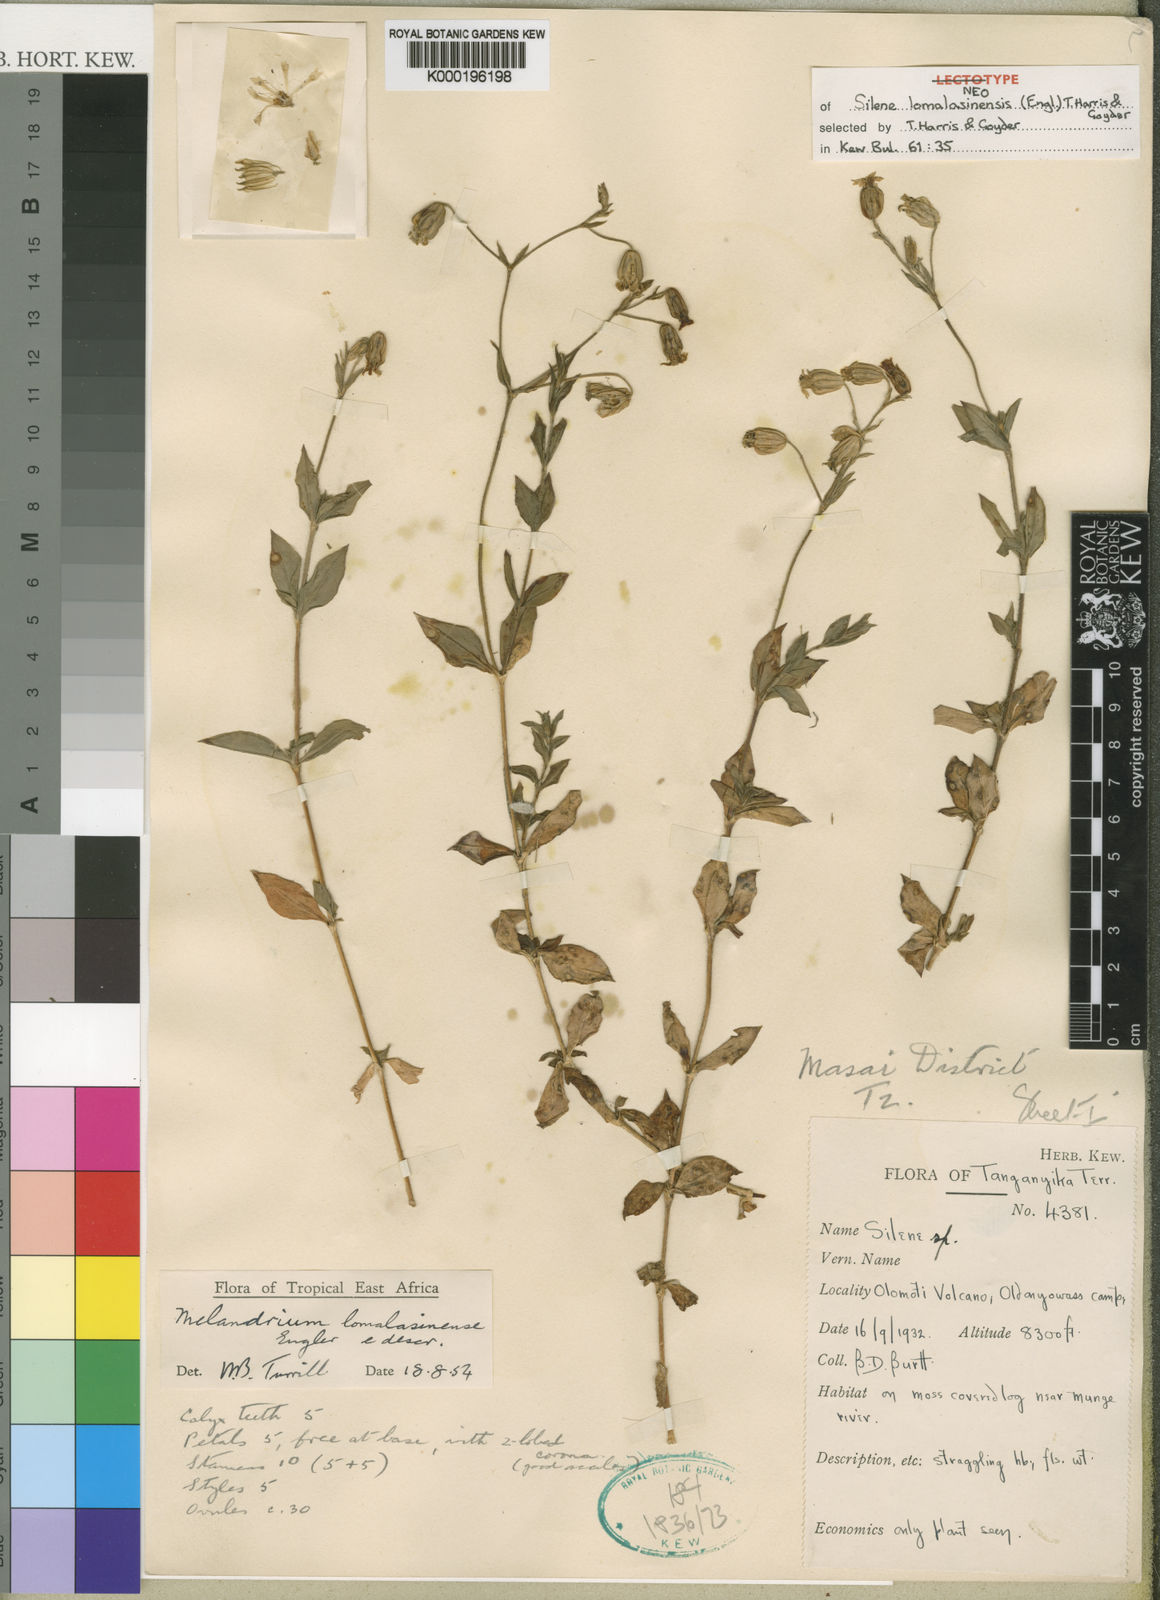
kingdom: Plantae
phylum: Tracheophyta
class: Magnoliopsida
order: Caryophyllales
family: Caryophyllaceae
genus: Silene
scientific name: Silene lomalasinensis
